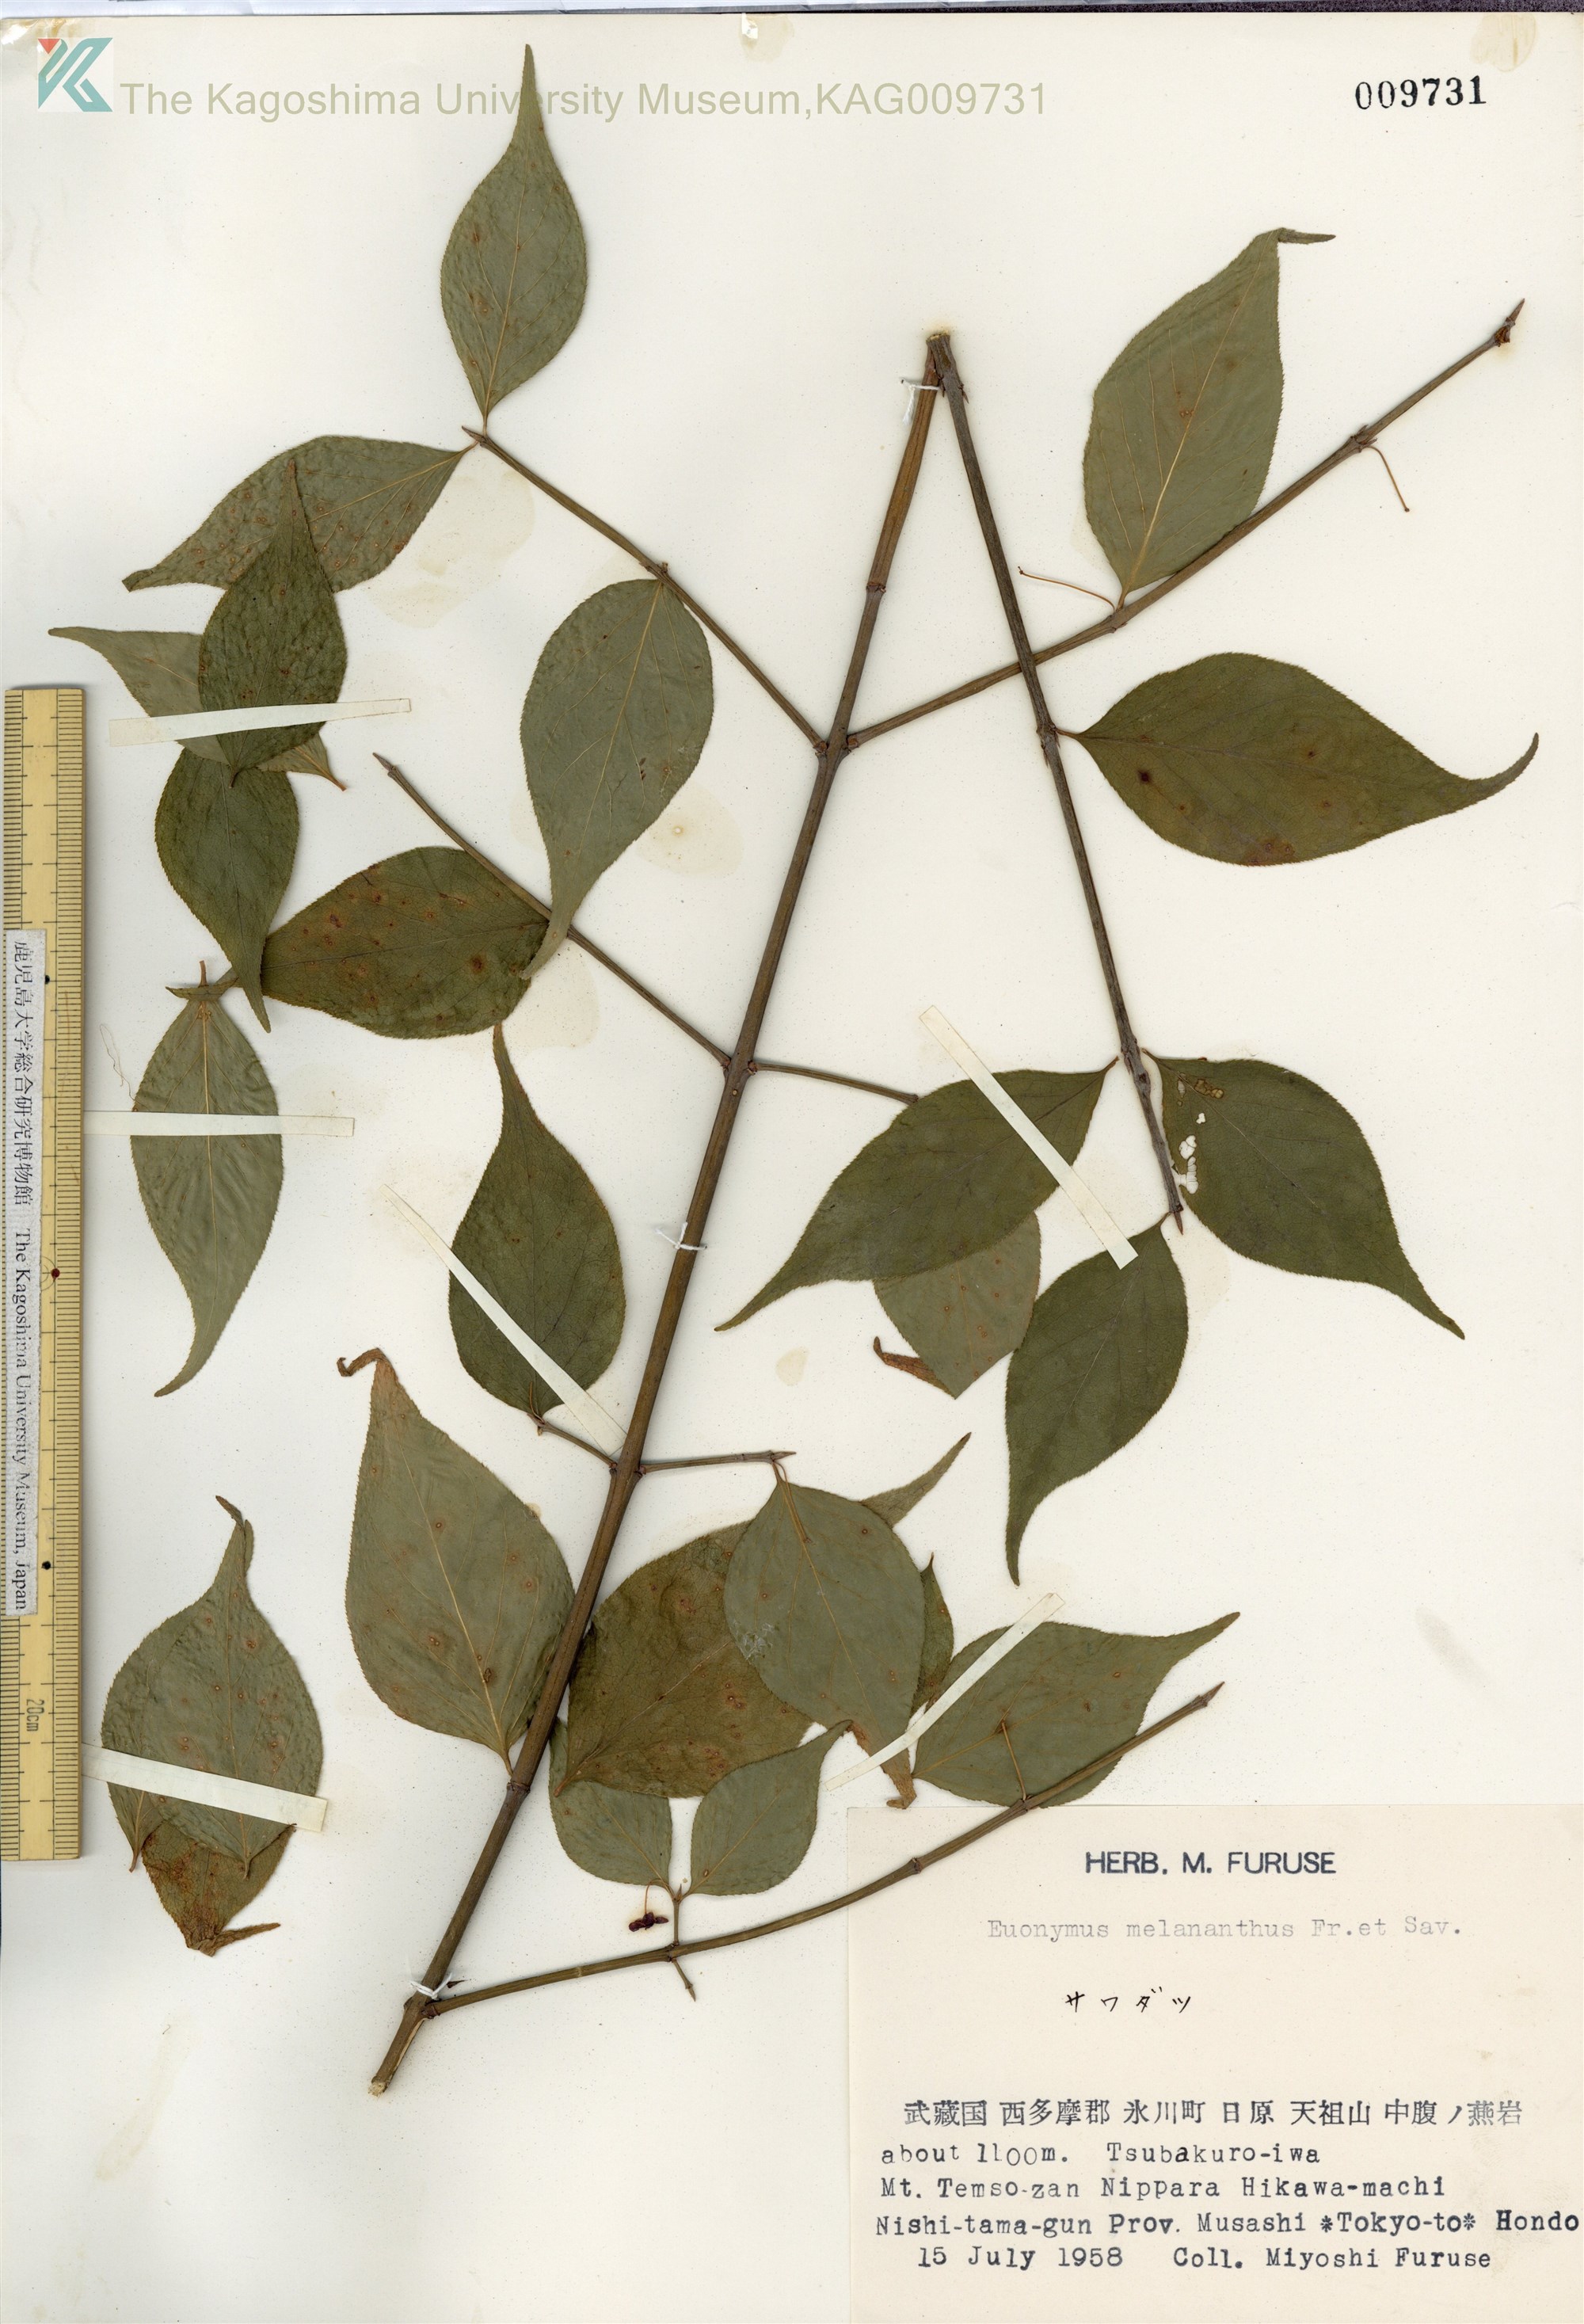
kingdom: Plantae
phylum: Tracheophyta
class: Magnoliopsida
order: Celastrales
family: Celastraceae
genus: Euonymus
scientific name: Euonymus melananthus
